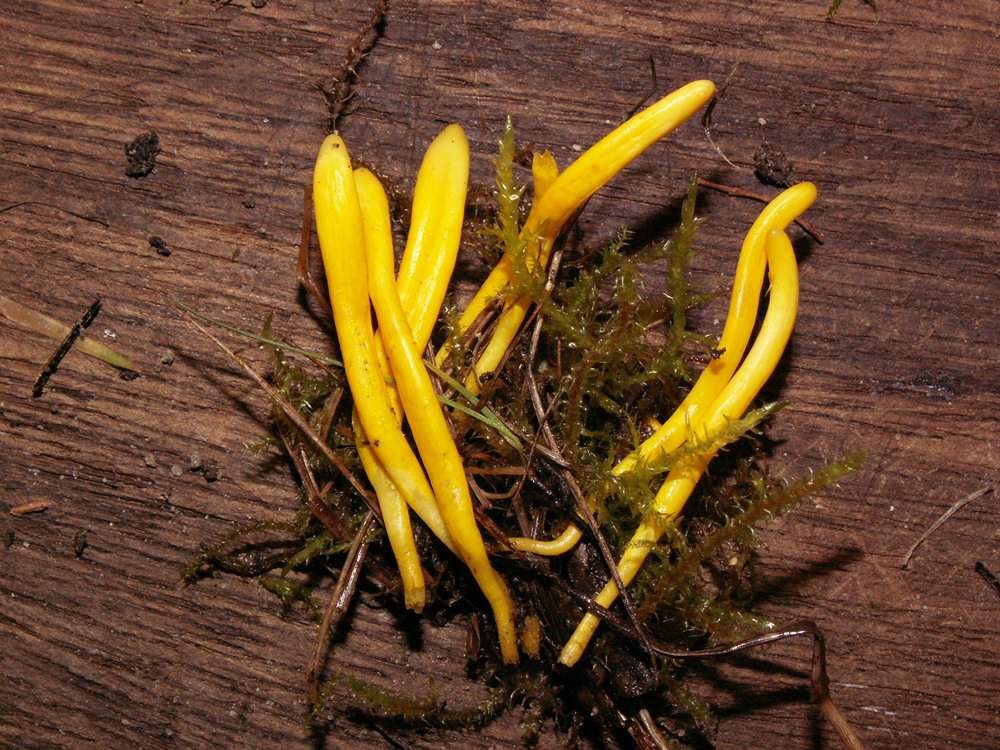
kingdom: Fungi
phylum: Basidiomycota
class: Agaricomycetes
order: Agaricales
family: Clavariaceae
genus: Clavulinopsis
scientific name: Clavulinopsis luteoalba
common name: abrikos-køllesvamp
